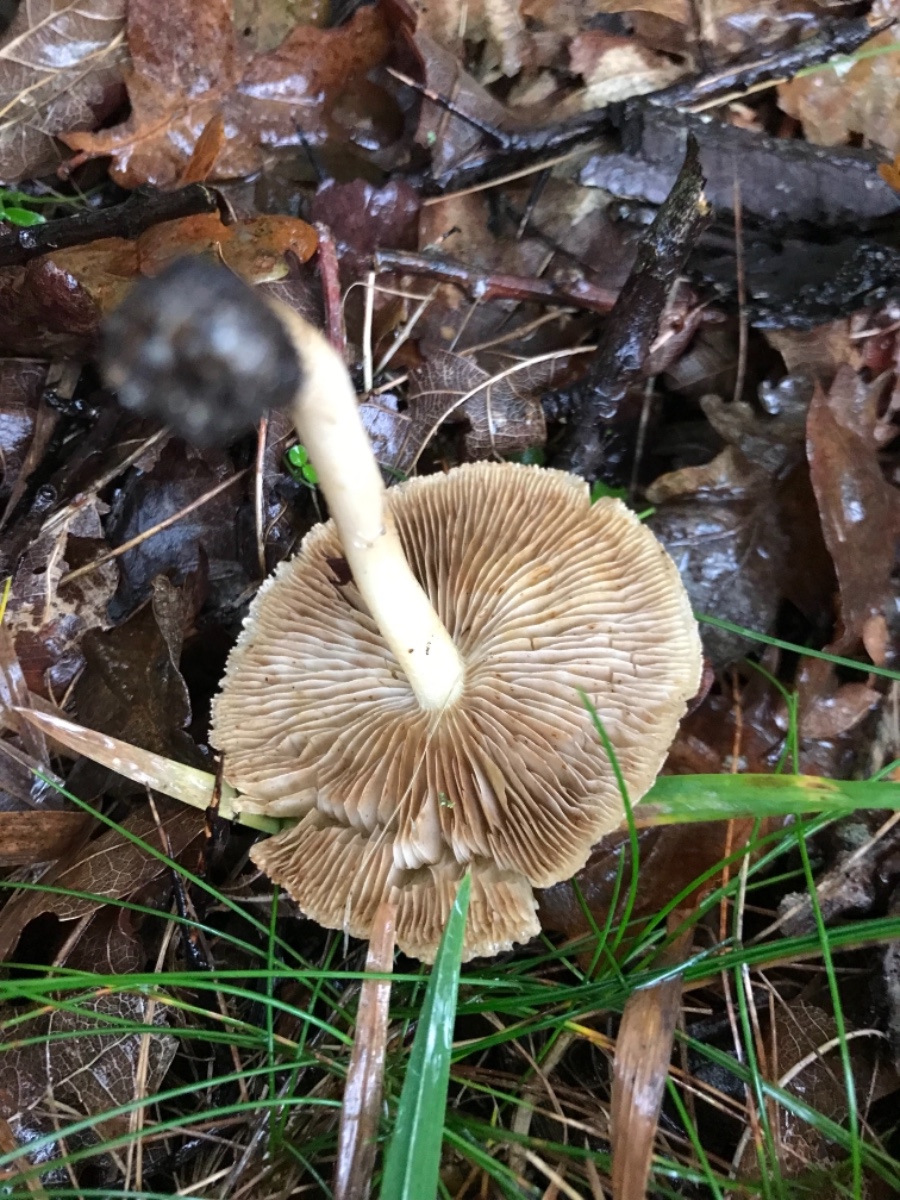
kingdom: Fungi
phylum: Basidiomycota
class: Agaricomycetes
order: Agaricales
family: Inocybaceae
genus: Inocybe
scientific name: Inocybe
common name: trævlhat
